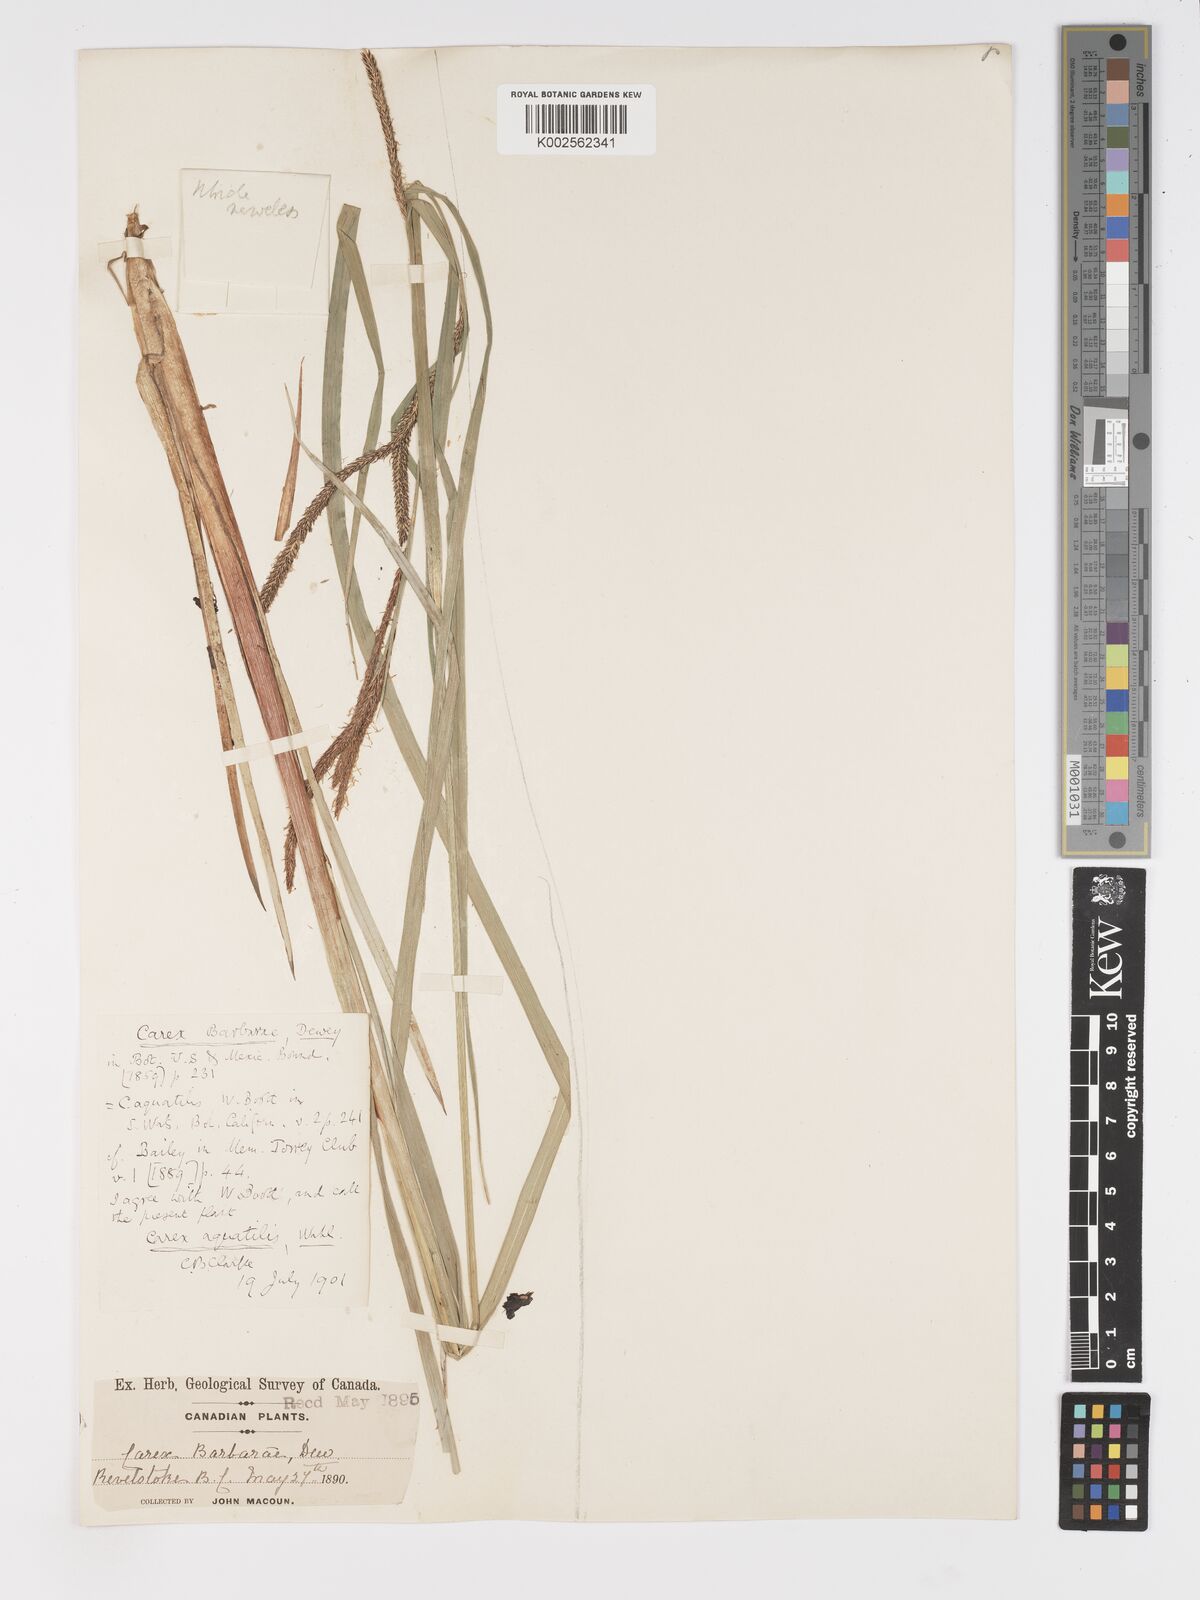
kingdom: Plantae
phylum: Tracheophyta
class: Liliopsida
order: Poales
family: Cyperaceae
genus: Carex
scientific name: Carex aquatilis
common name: Water sedge
